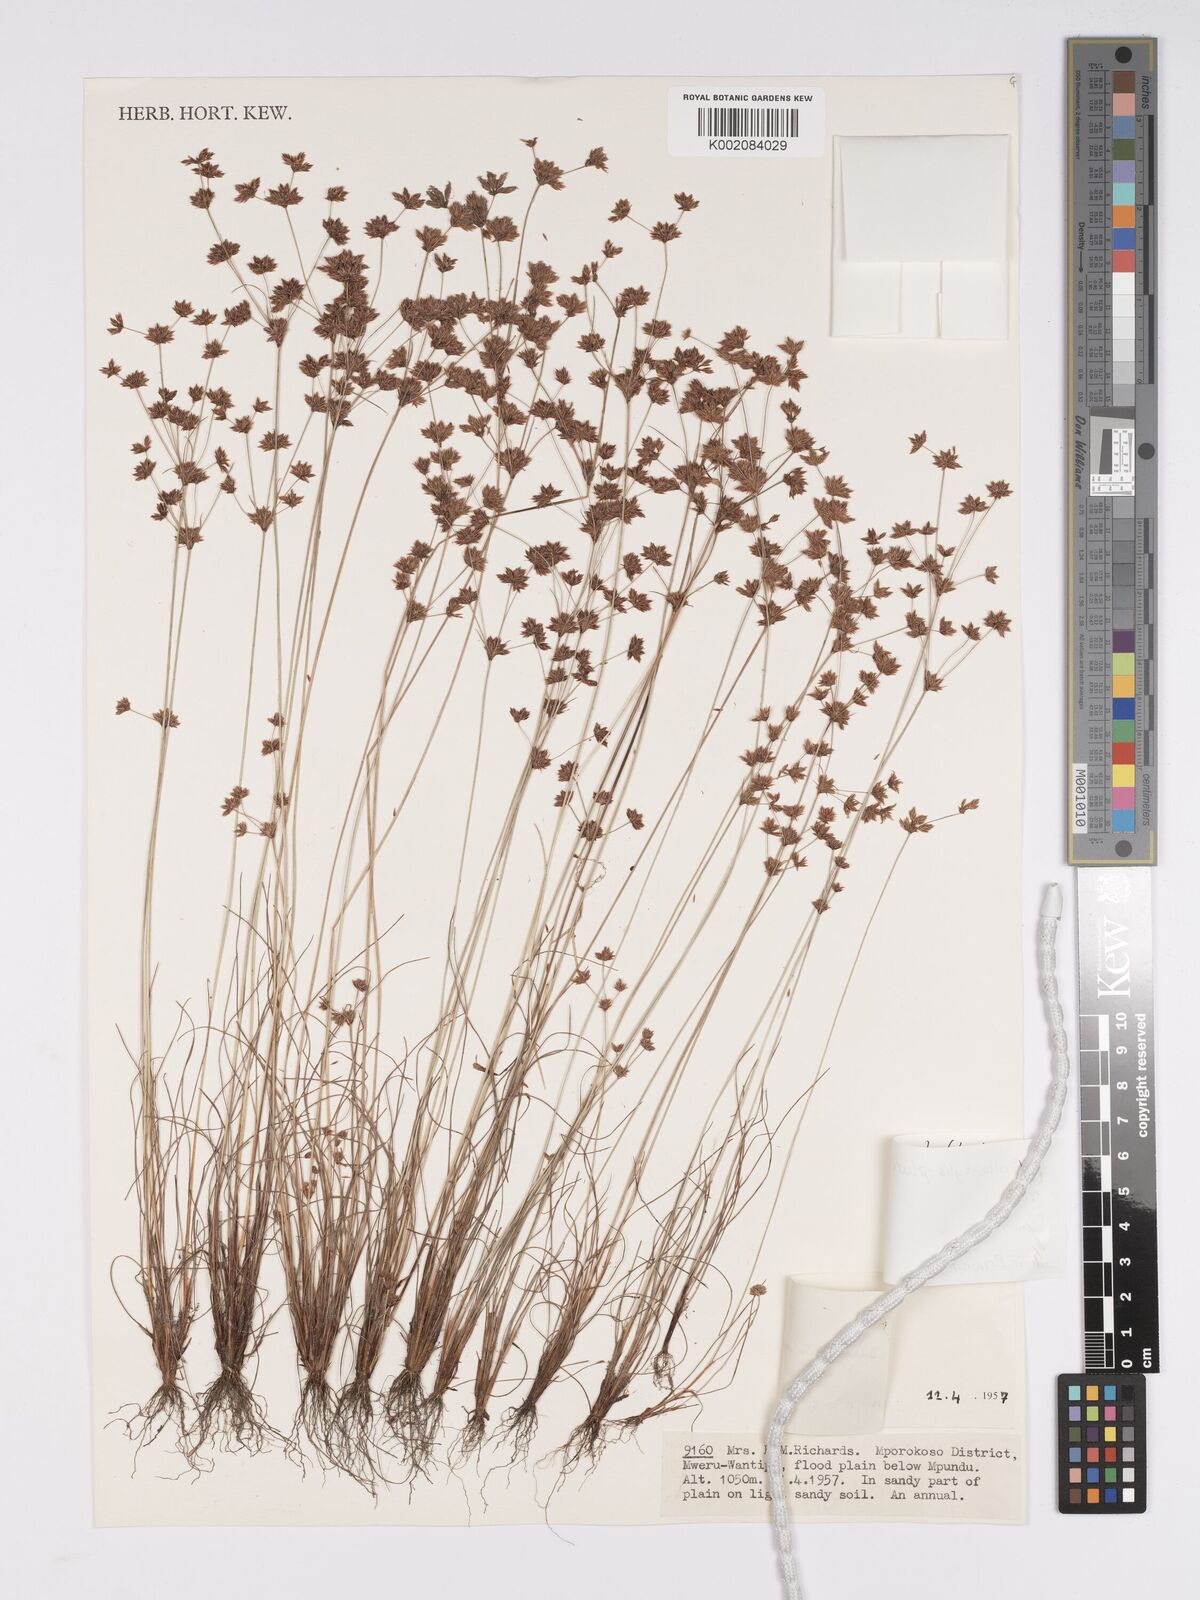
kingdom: Plantae
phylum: Tracheophyta
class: Liliopsida
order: Poales
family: Cyperaceae
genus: Bulbostylis
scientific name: Bulbostylis pluricephala
